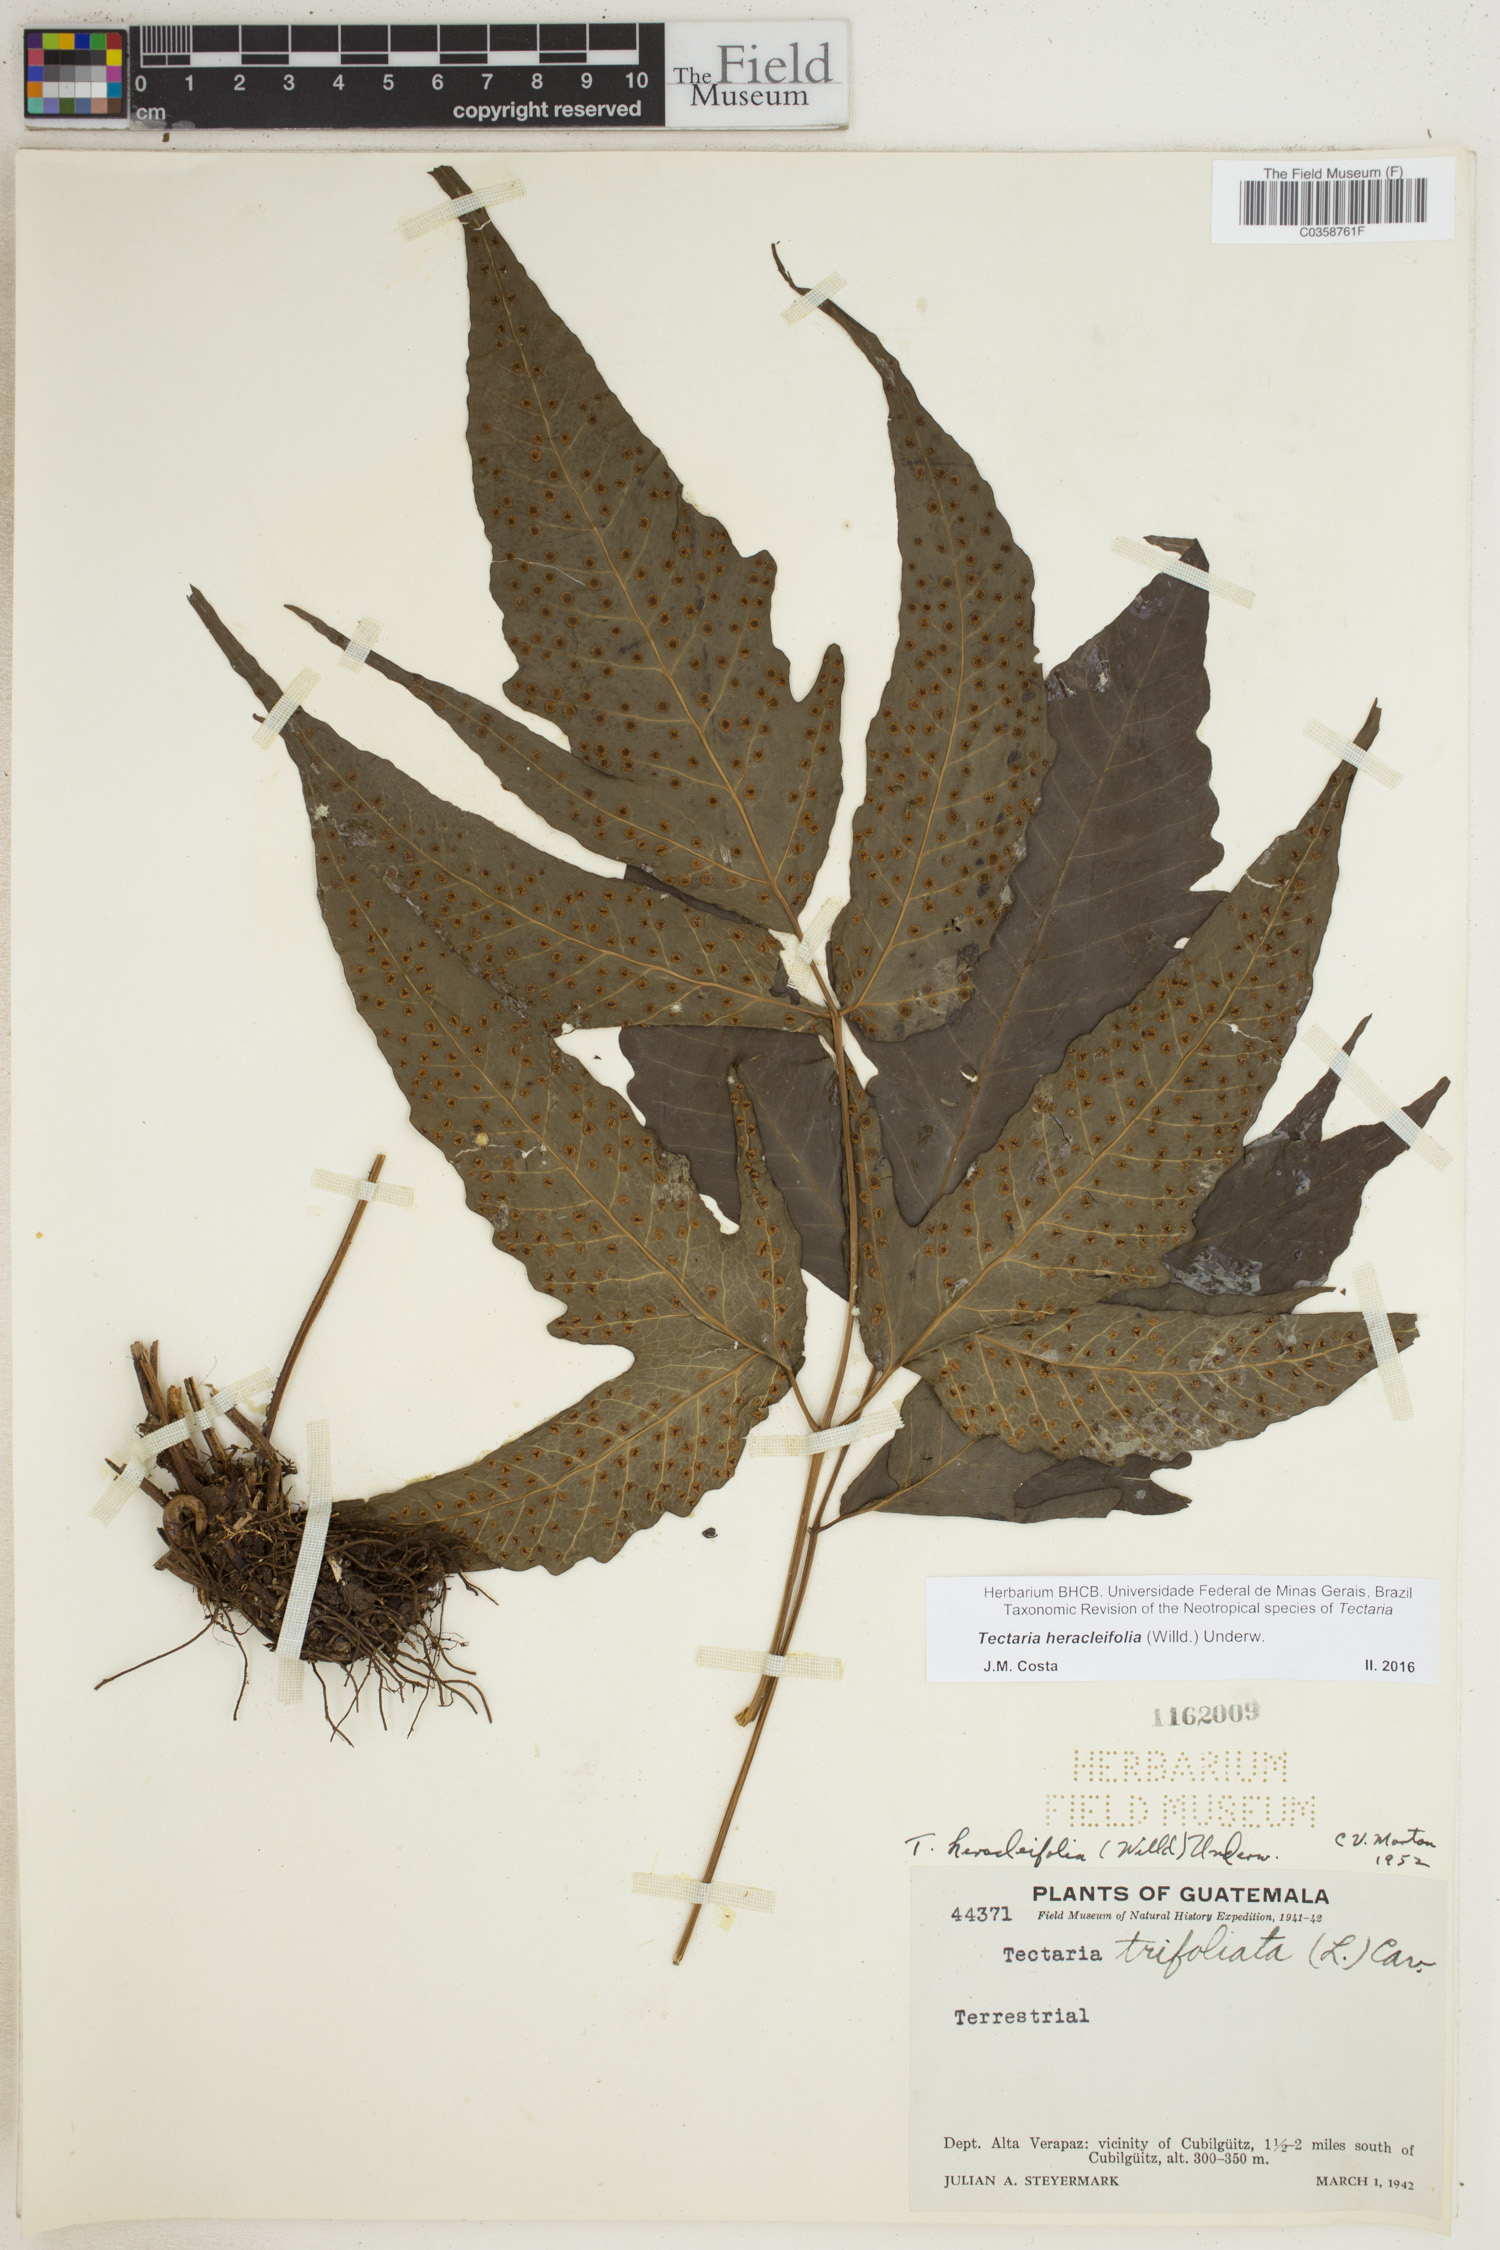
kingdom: Plantae
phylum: Tracheophyta
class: Polypodiopsida
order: Polypodiales
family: Tectariaceae
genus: Tectaria
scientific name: Tectaria heracleifolia
